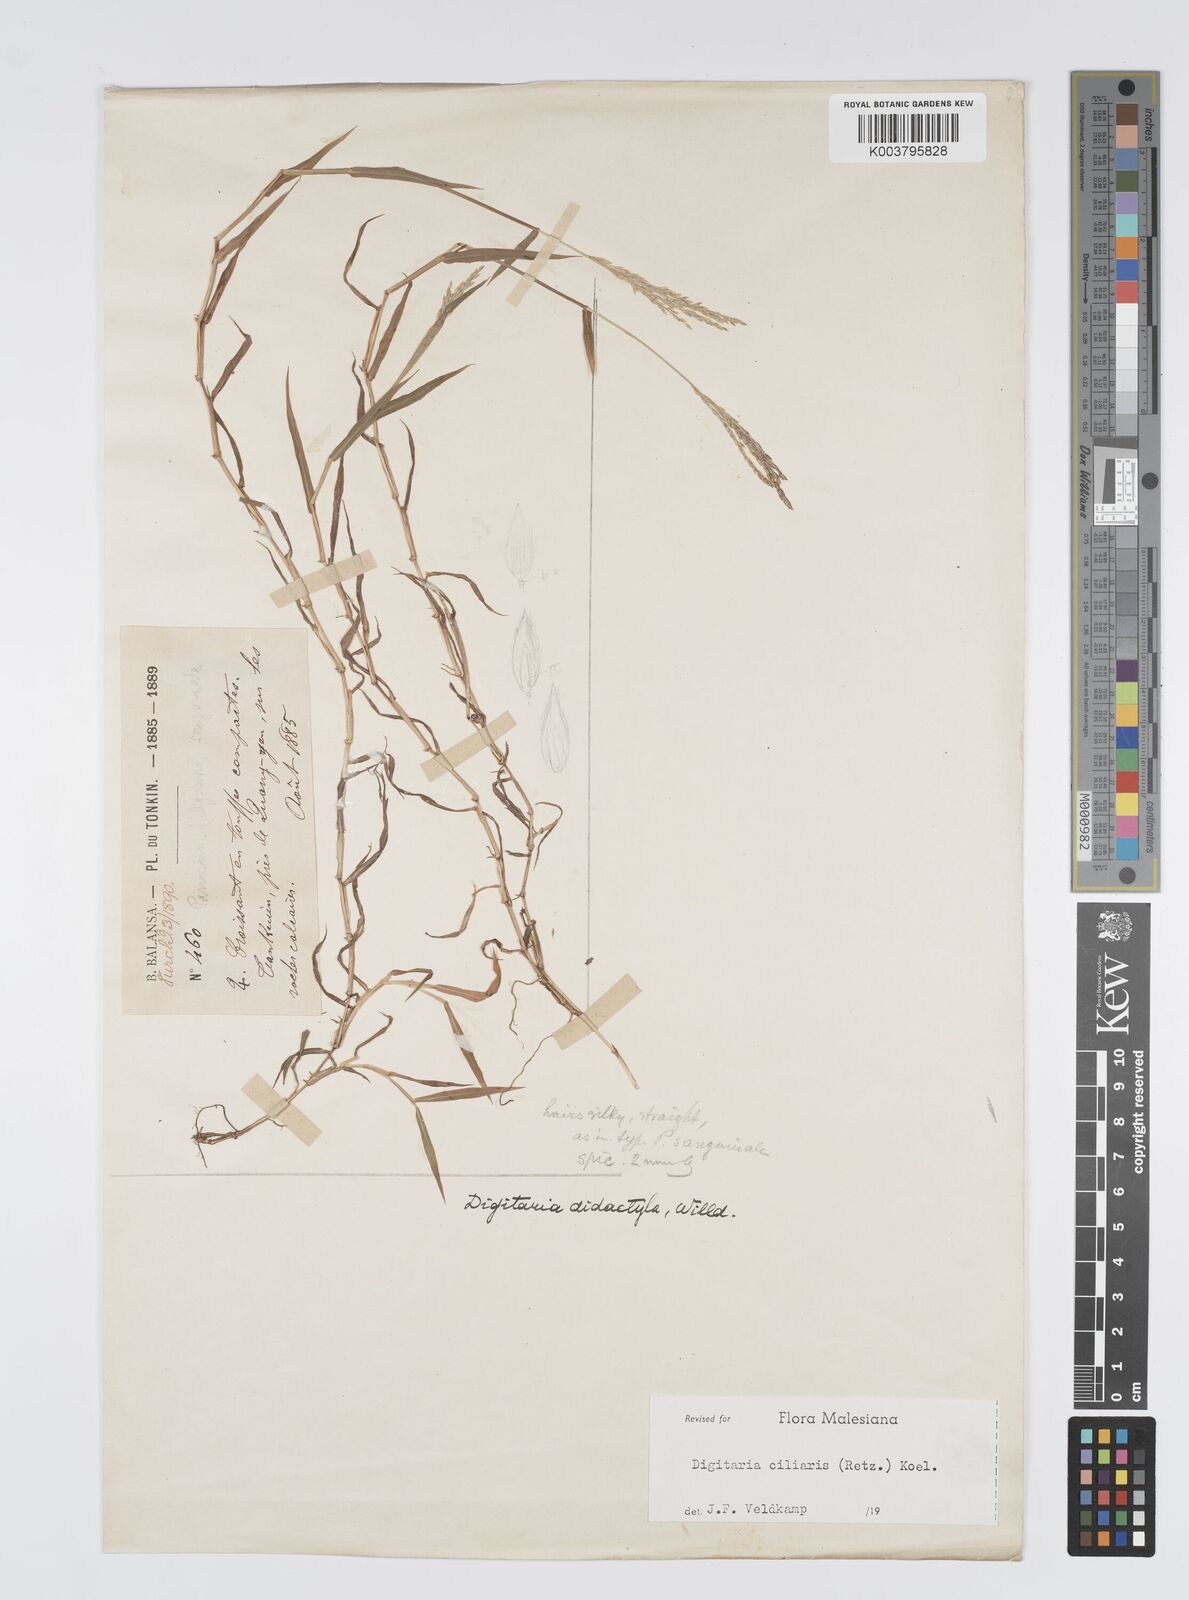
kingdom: Plantae
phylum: Tracheophyta
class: Liliopsida
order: Poales
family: Poaceae
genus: Digitaria
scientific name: Digitaria ciliaris
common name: Tropical finger-grass
